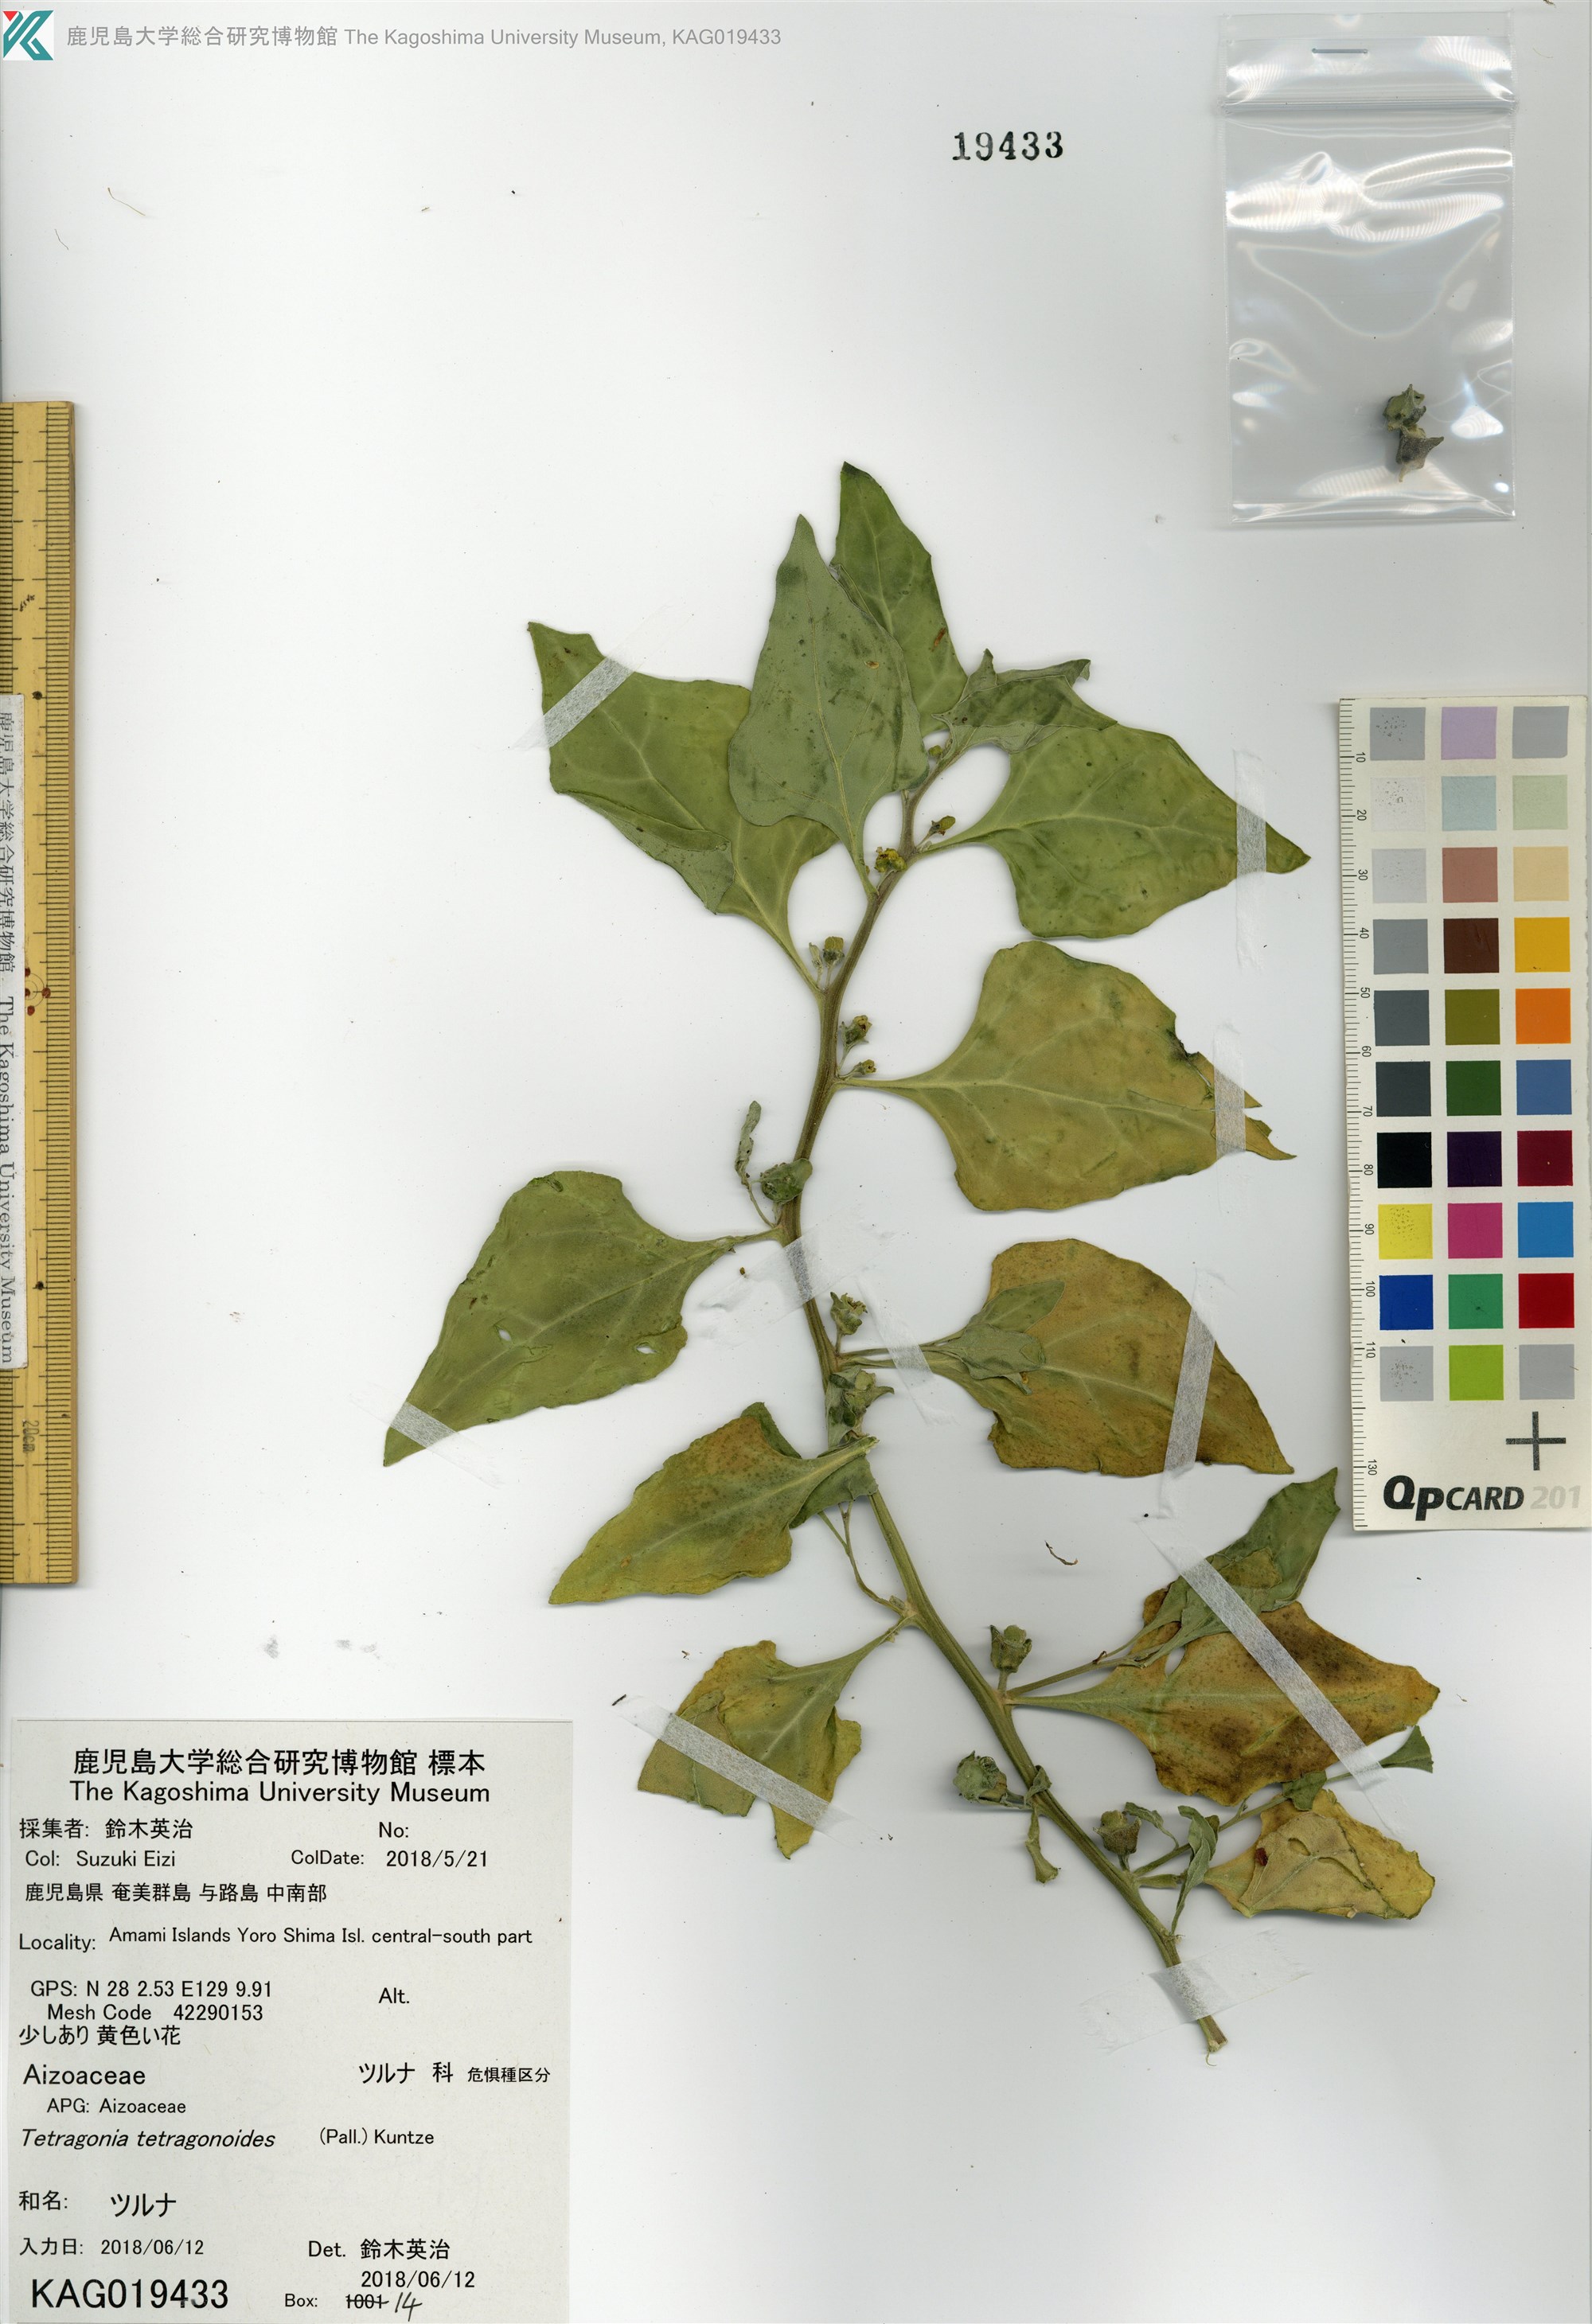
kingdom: Plantae
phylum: Tracheophyta
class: Magnoliopsida
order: Caryophyllales
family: Aizoaceae
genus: Tetragonia
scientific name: Tetragonia tetragonoides
